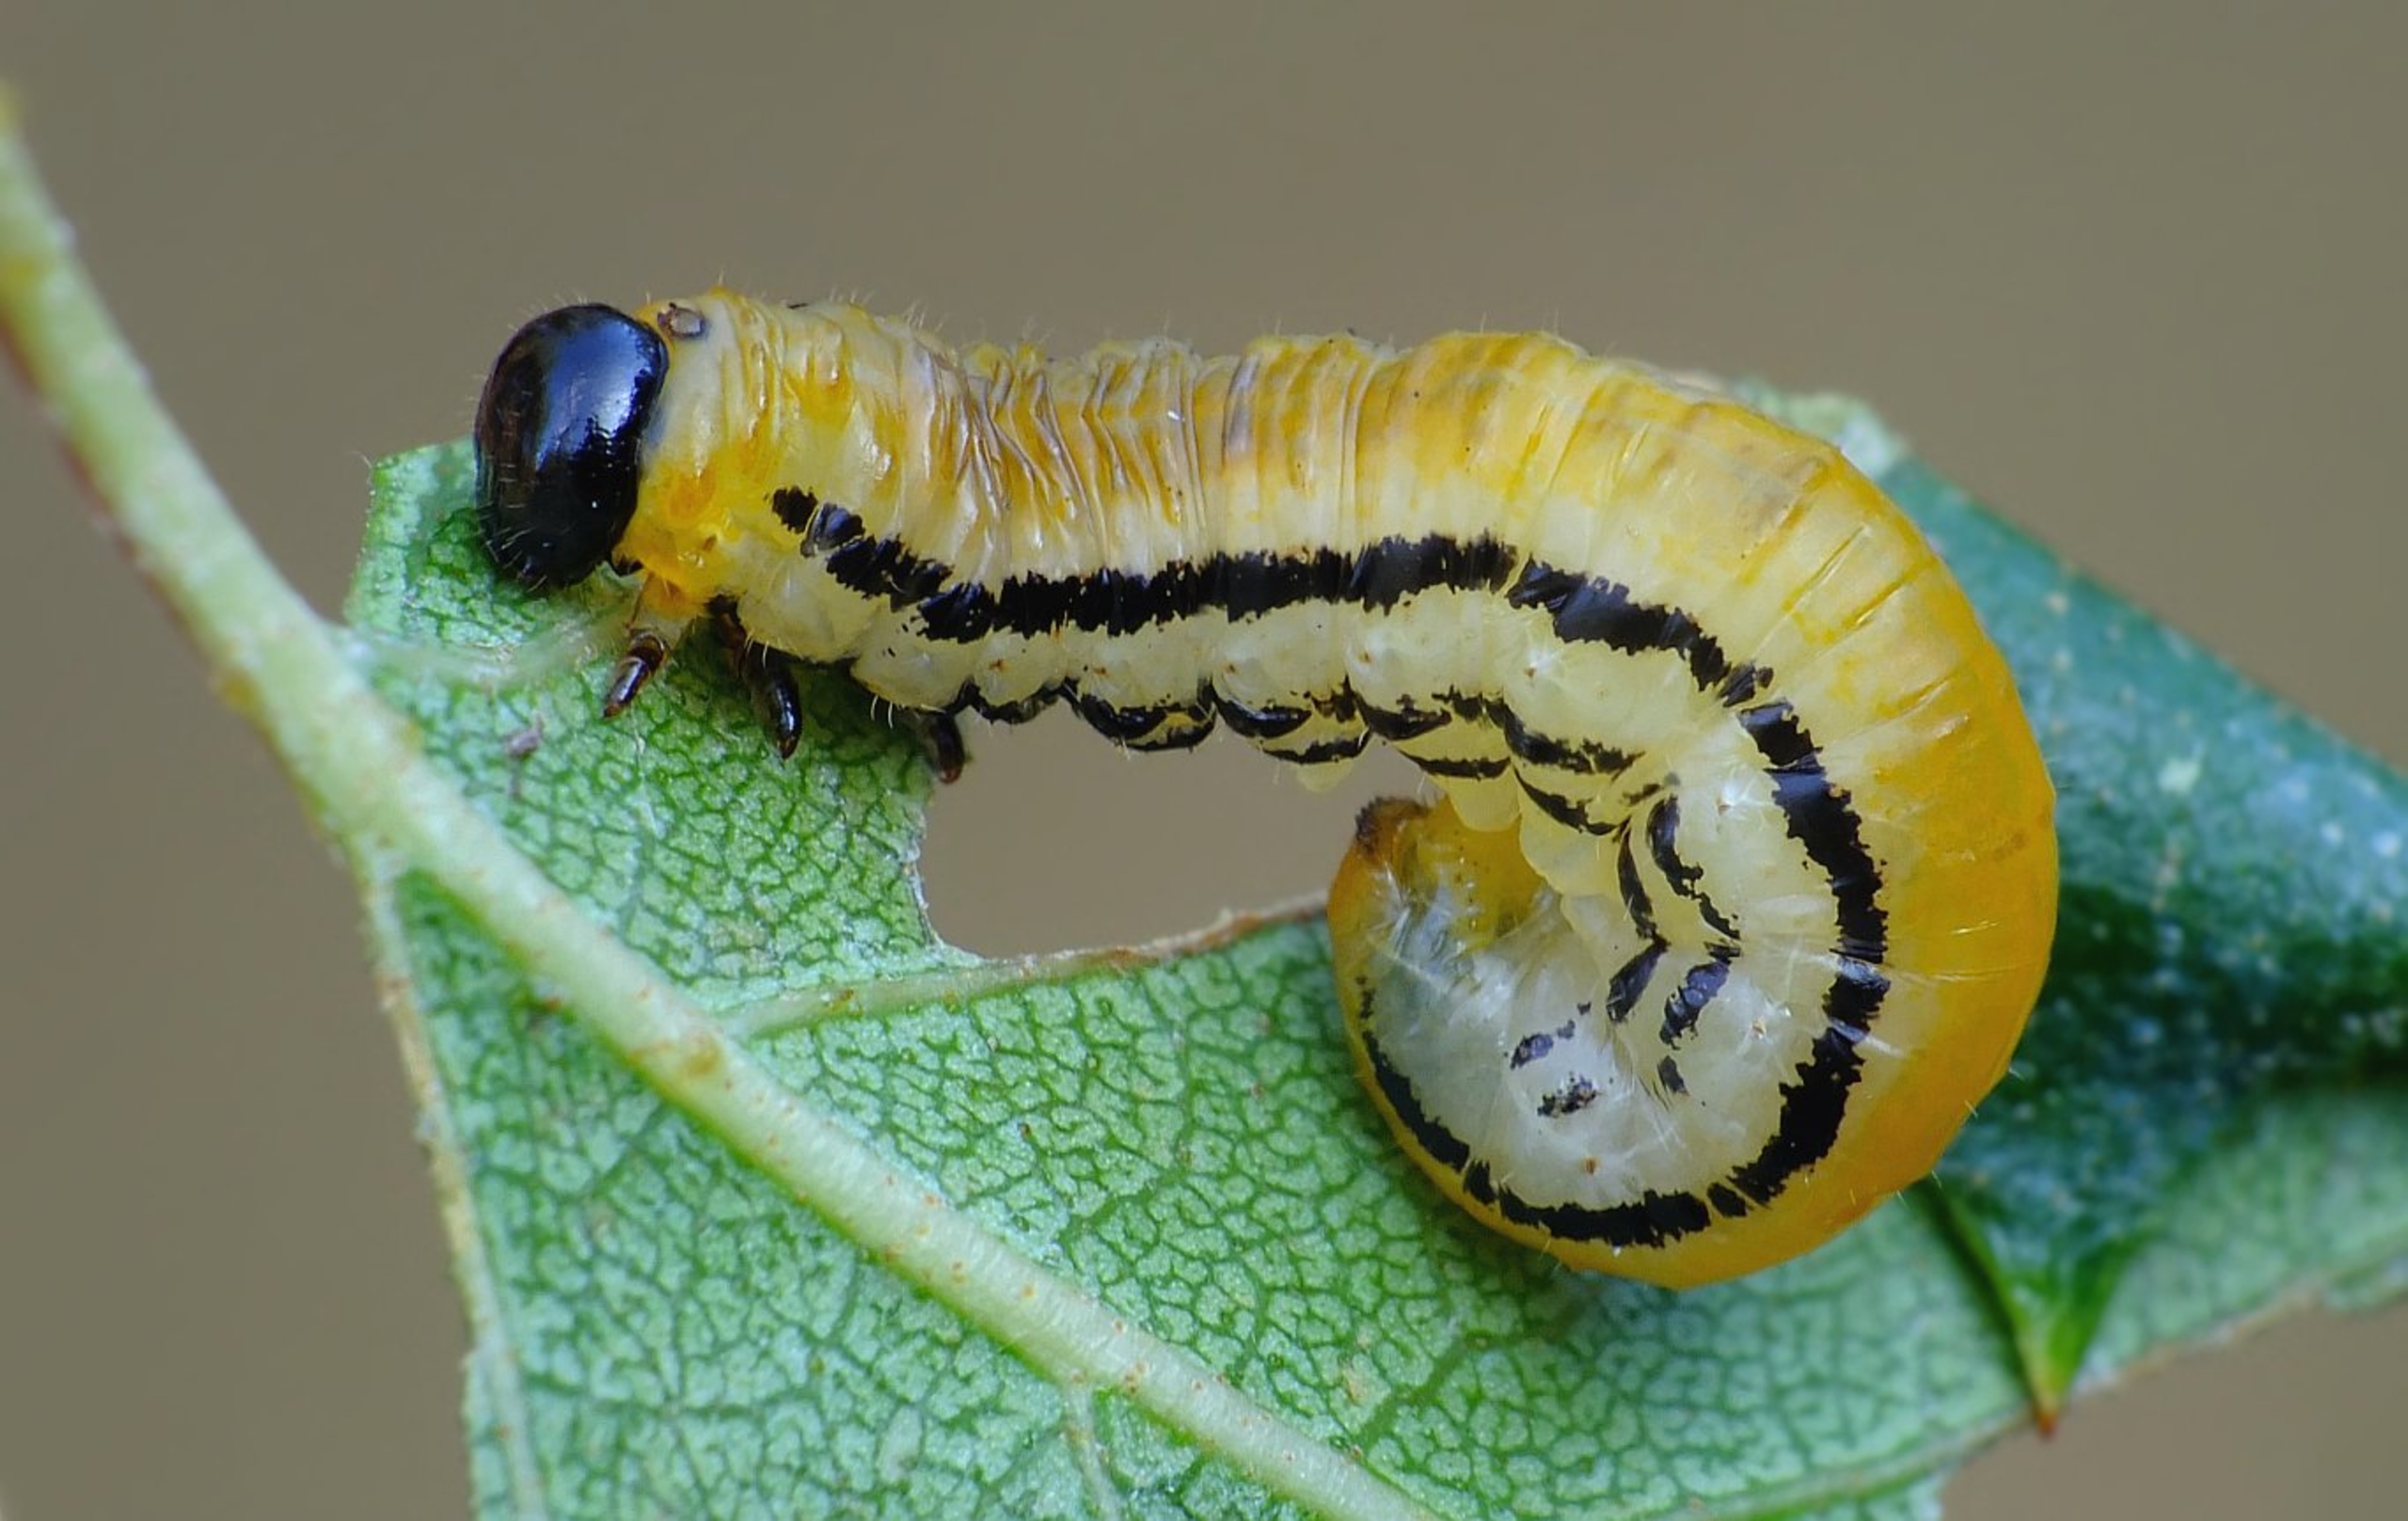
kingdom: Animalia
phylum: Arthropoda
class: Insecta
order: Hymenoptera
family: Tenthredinidae
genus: Hemichroa
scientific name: Hemichroa crocea
